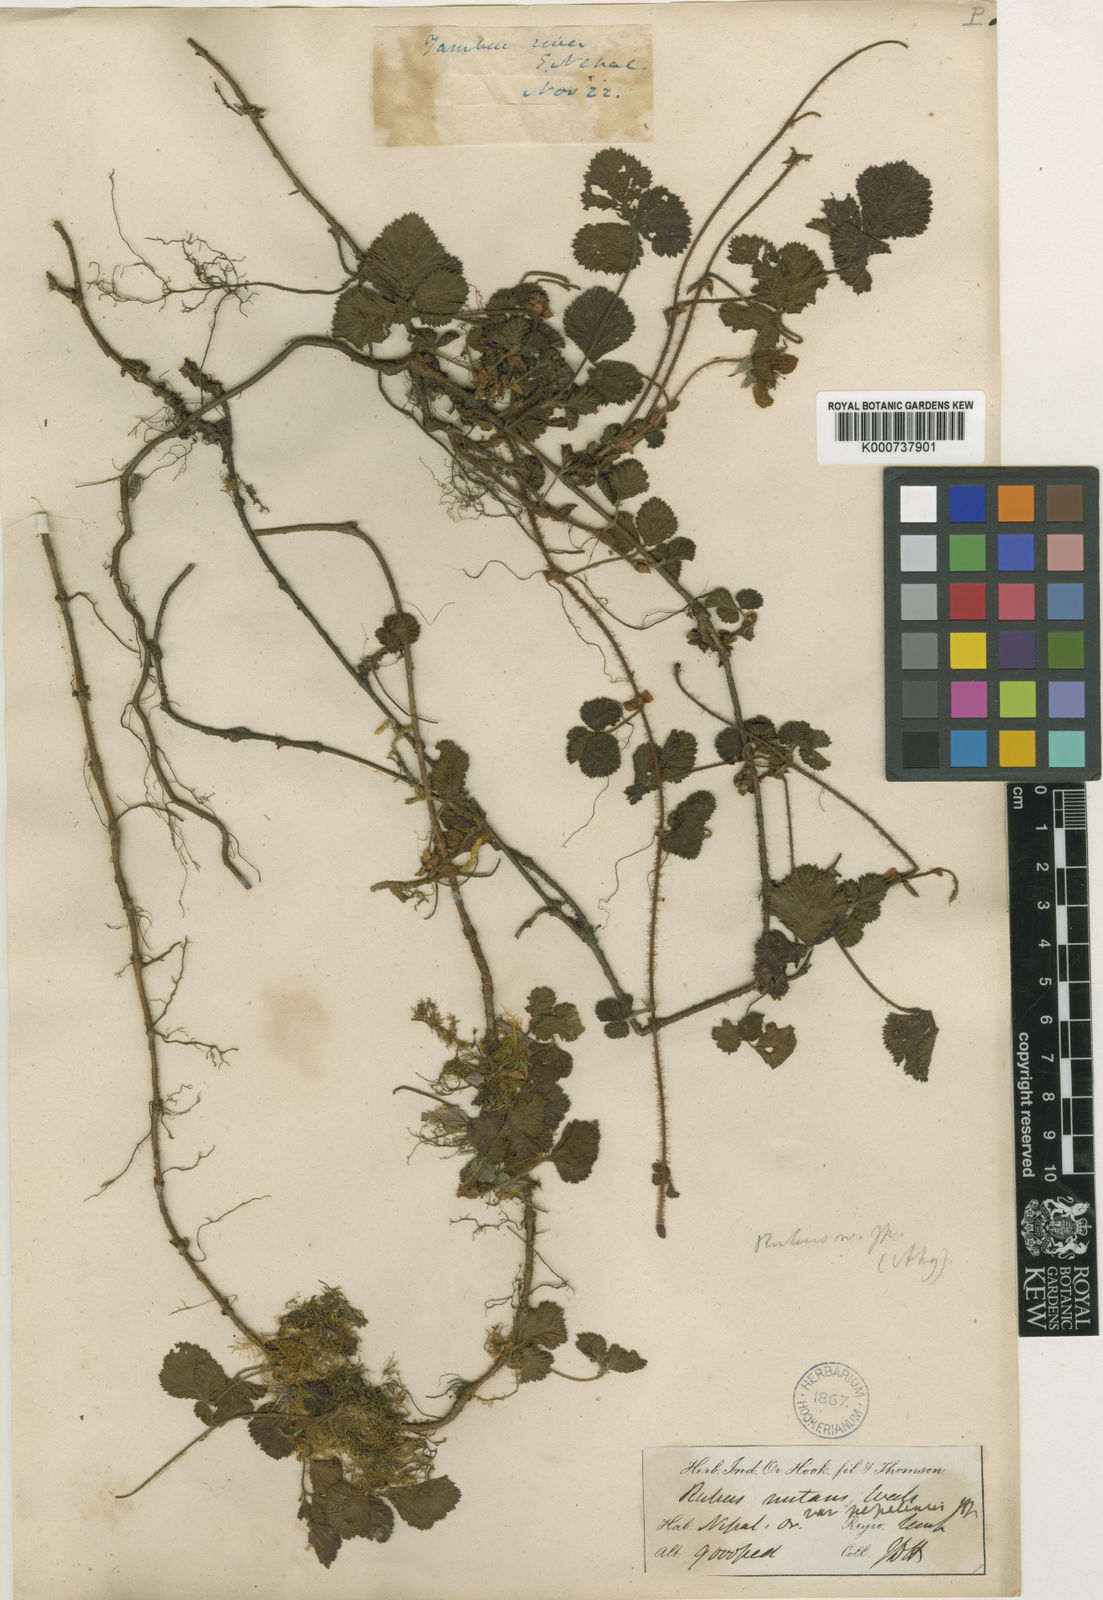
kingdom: Plantae
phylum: Tracheophyta
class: Magnoliopsida
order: Rosales
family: Rosaceae
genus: Rubus
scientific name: Rubus nepalensis
